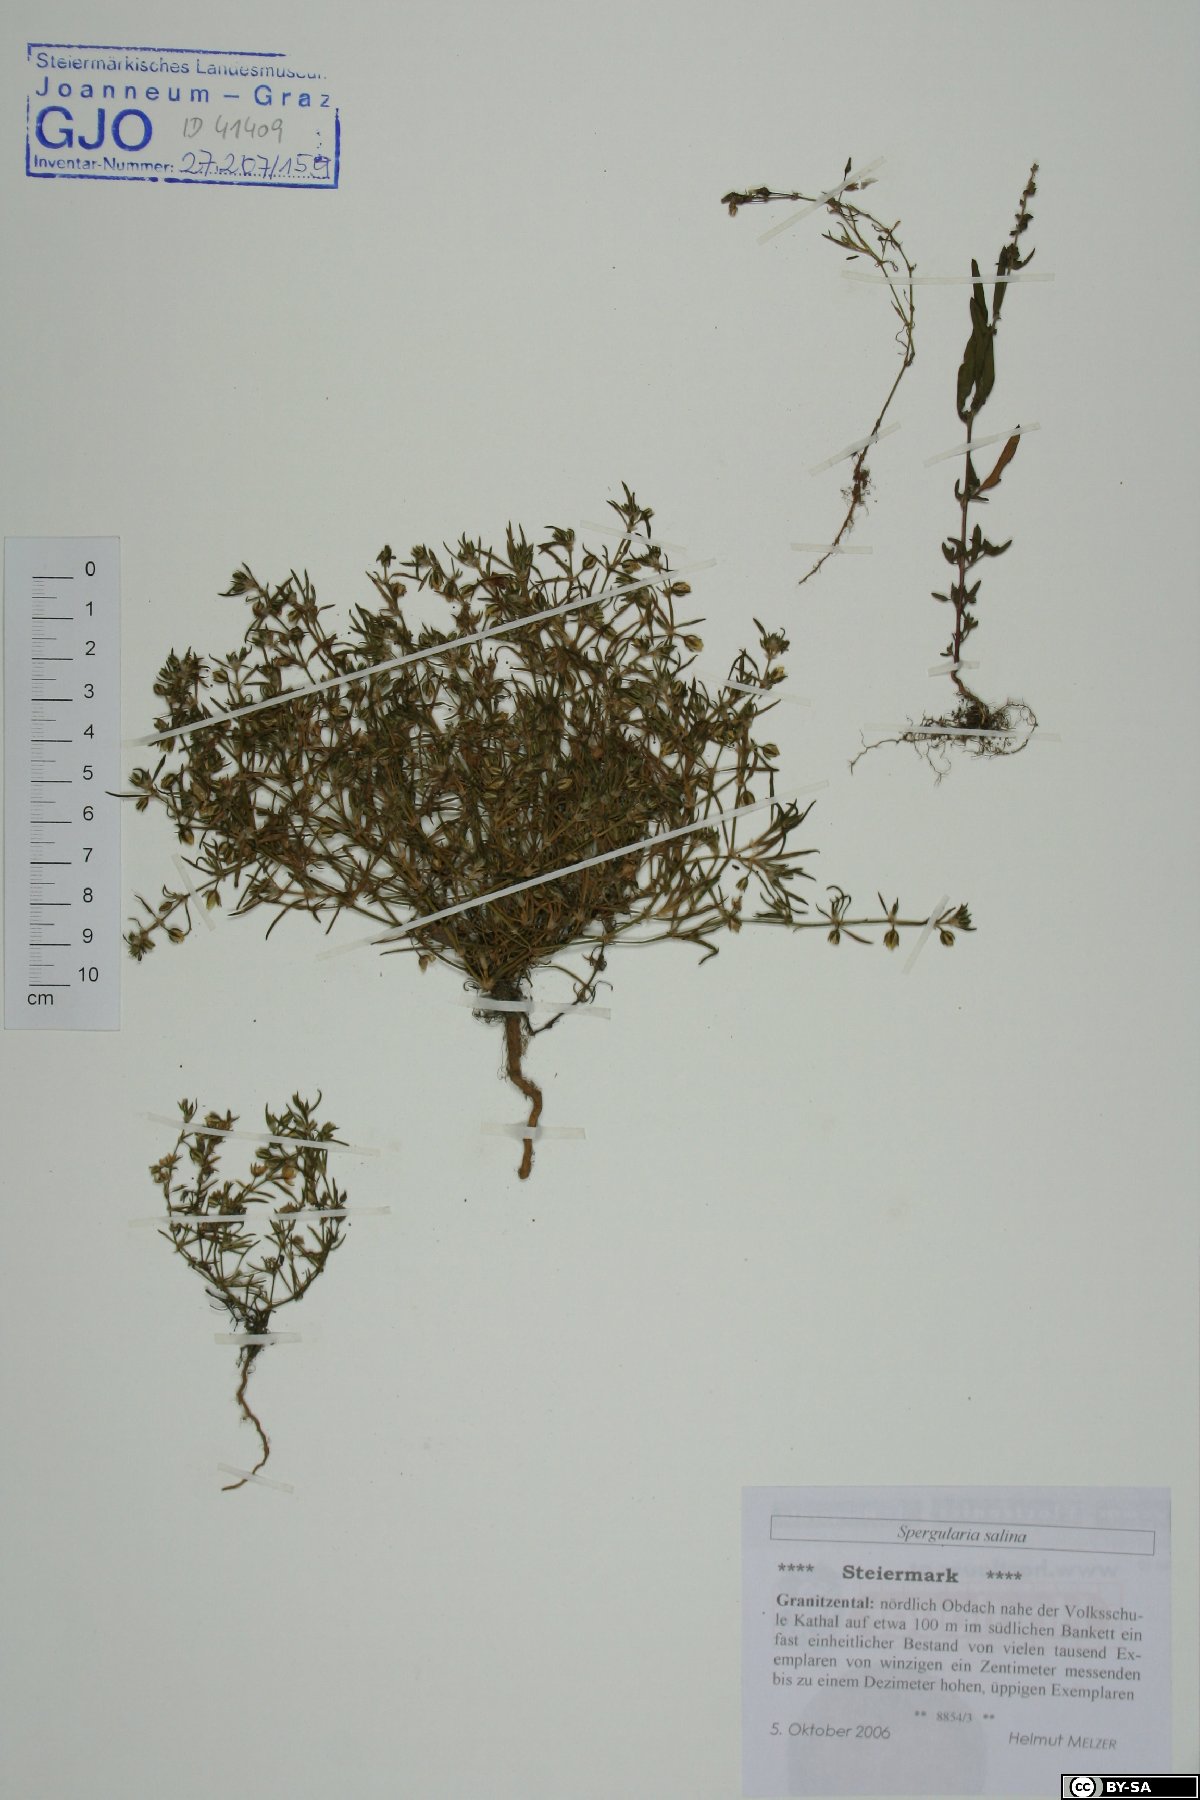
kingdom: Plantae
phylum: Tracheophyta
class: Magnoliopsida
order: Caryophyllales
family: Caryophyllaceae
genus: Spergularia
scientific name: Spergularia marina
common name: Lesser sea-spurrey
